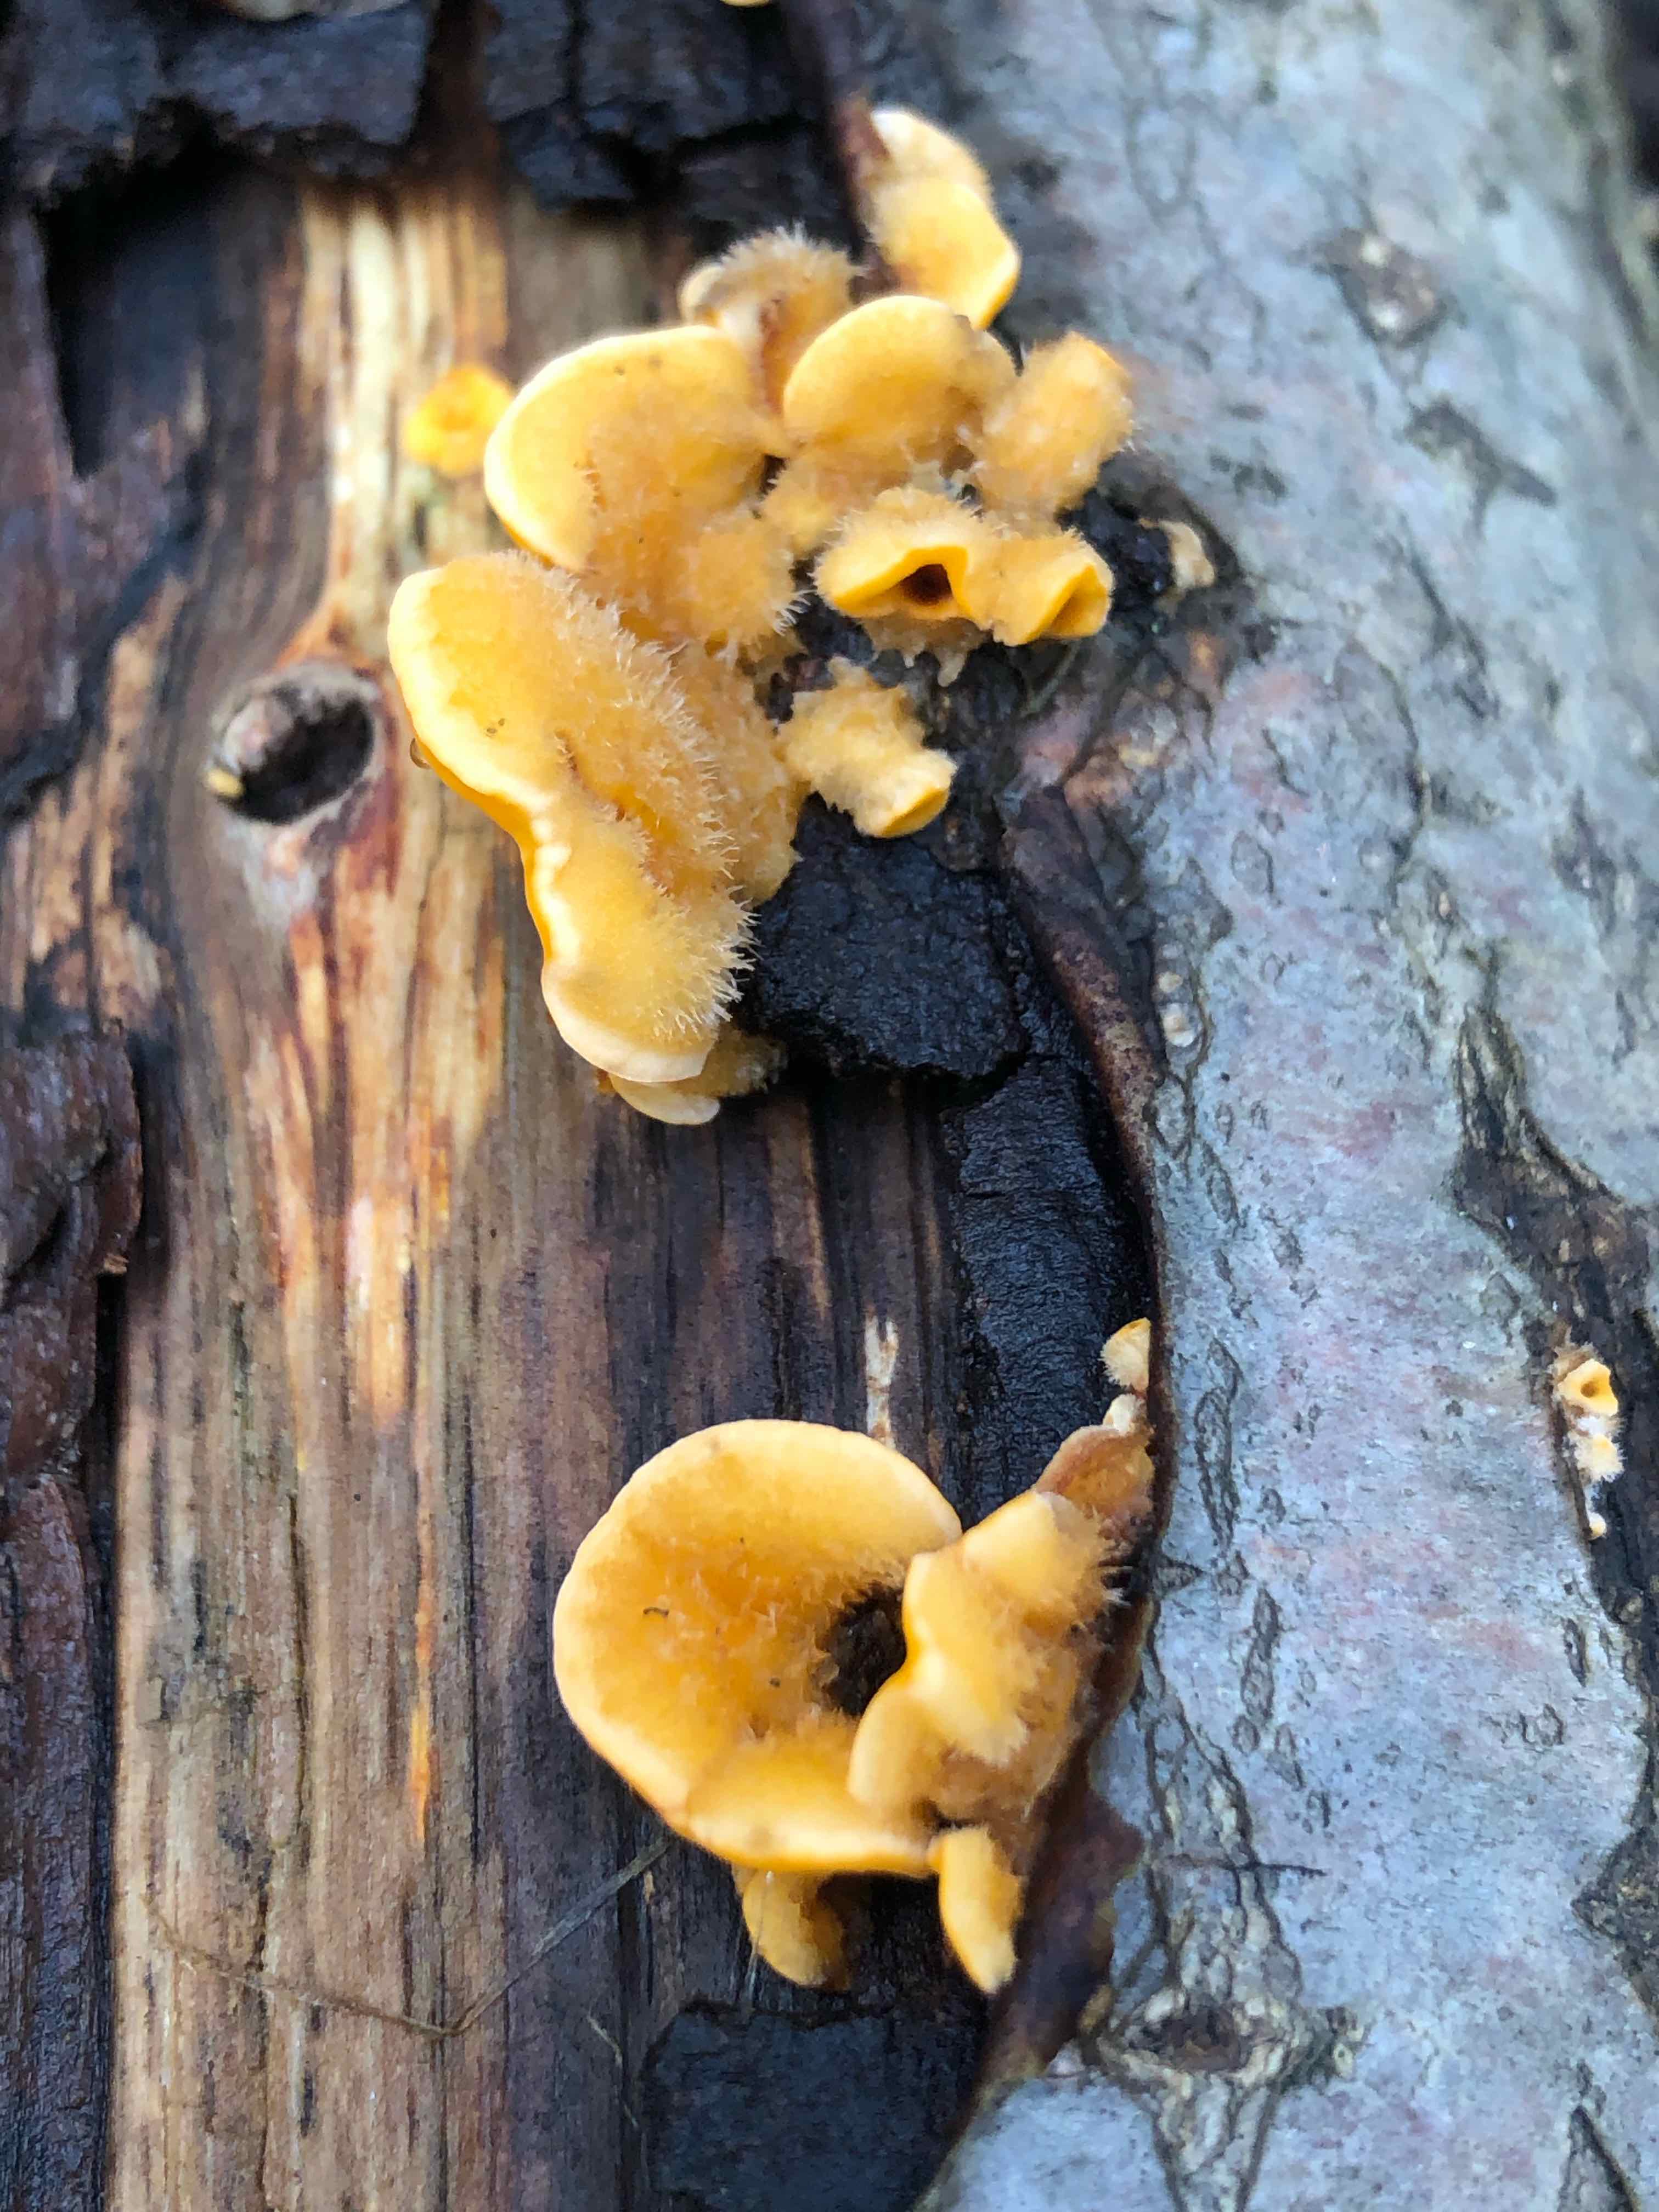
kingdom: Fungi
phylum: Basidiomycota
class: Agaricomycetes
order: Russulales
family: Stereaceae
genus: Stereum
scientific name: Stereum hirsutum
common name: håret lædersvamp
